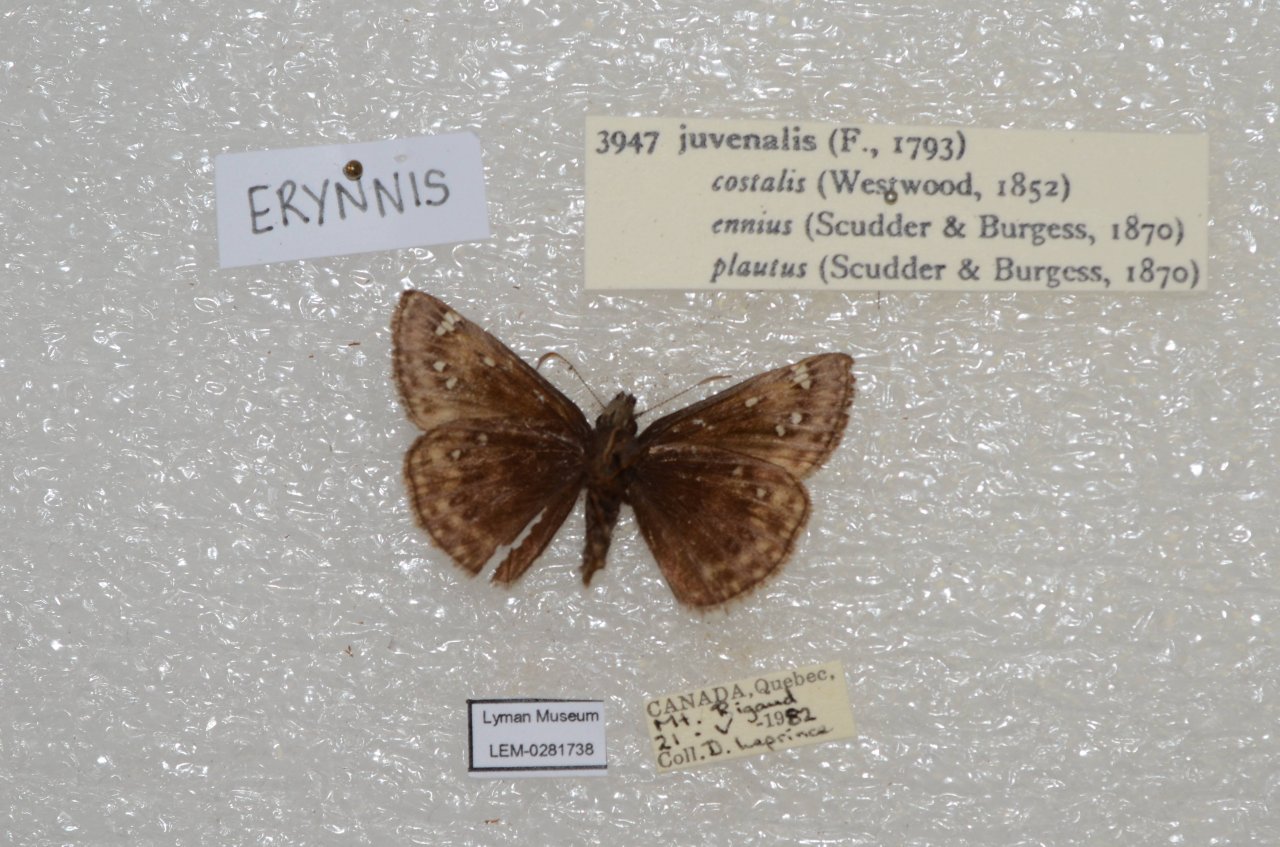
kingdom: Animalia
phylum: Arthropoda
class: Insecta
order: Lepidoptera
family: Hesperiidae
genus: Gesta
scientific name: Gesta
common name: Juvenal's Duskywing
